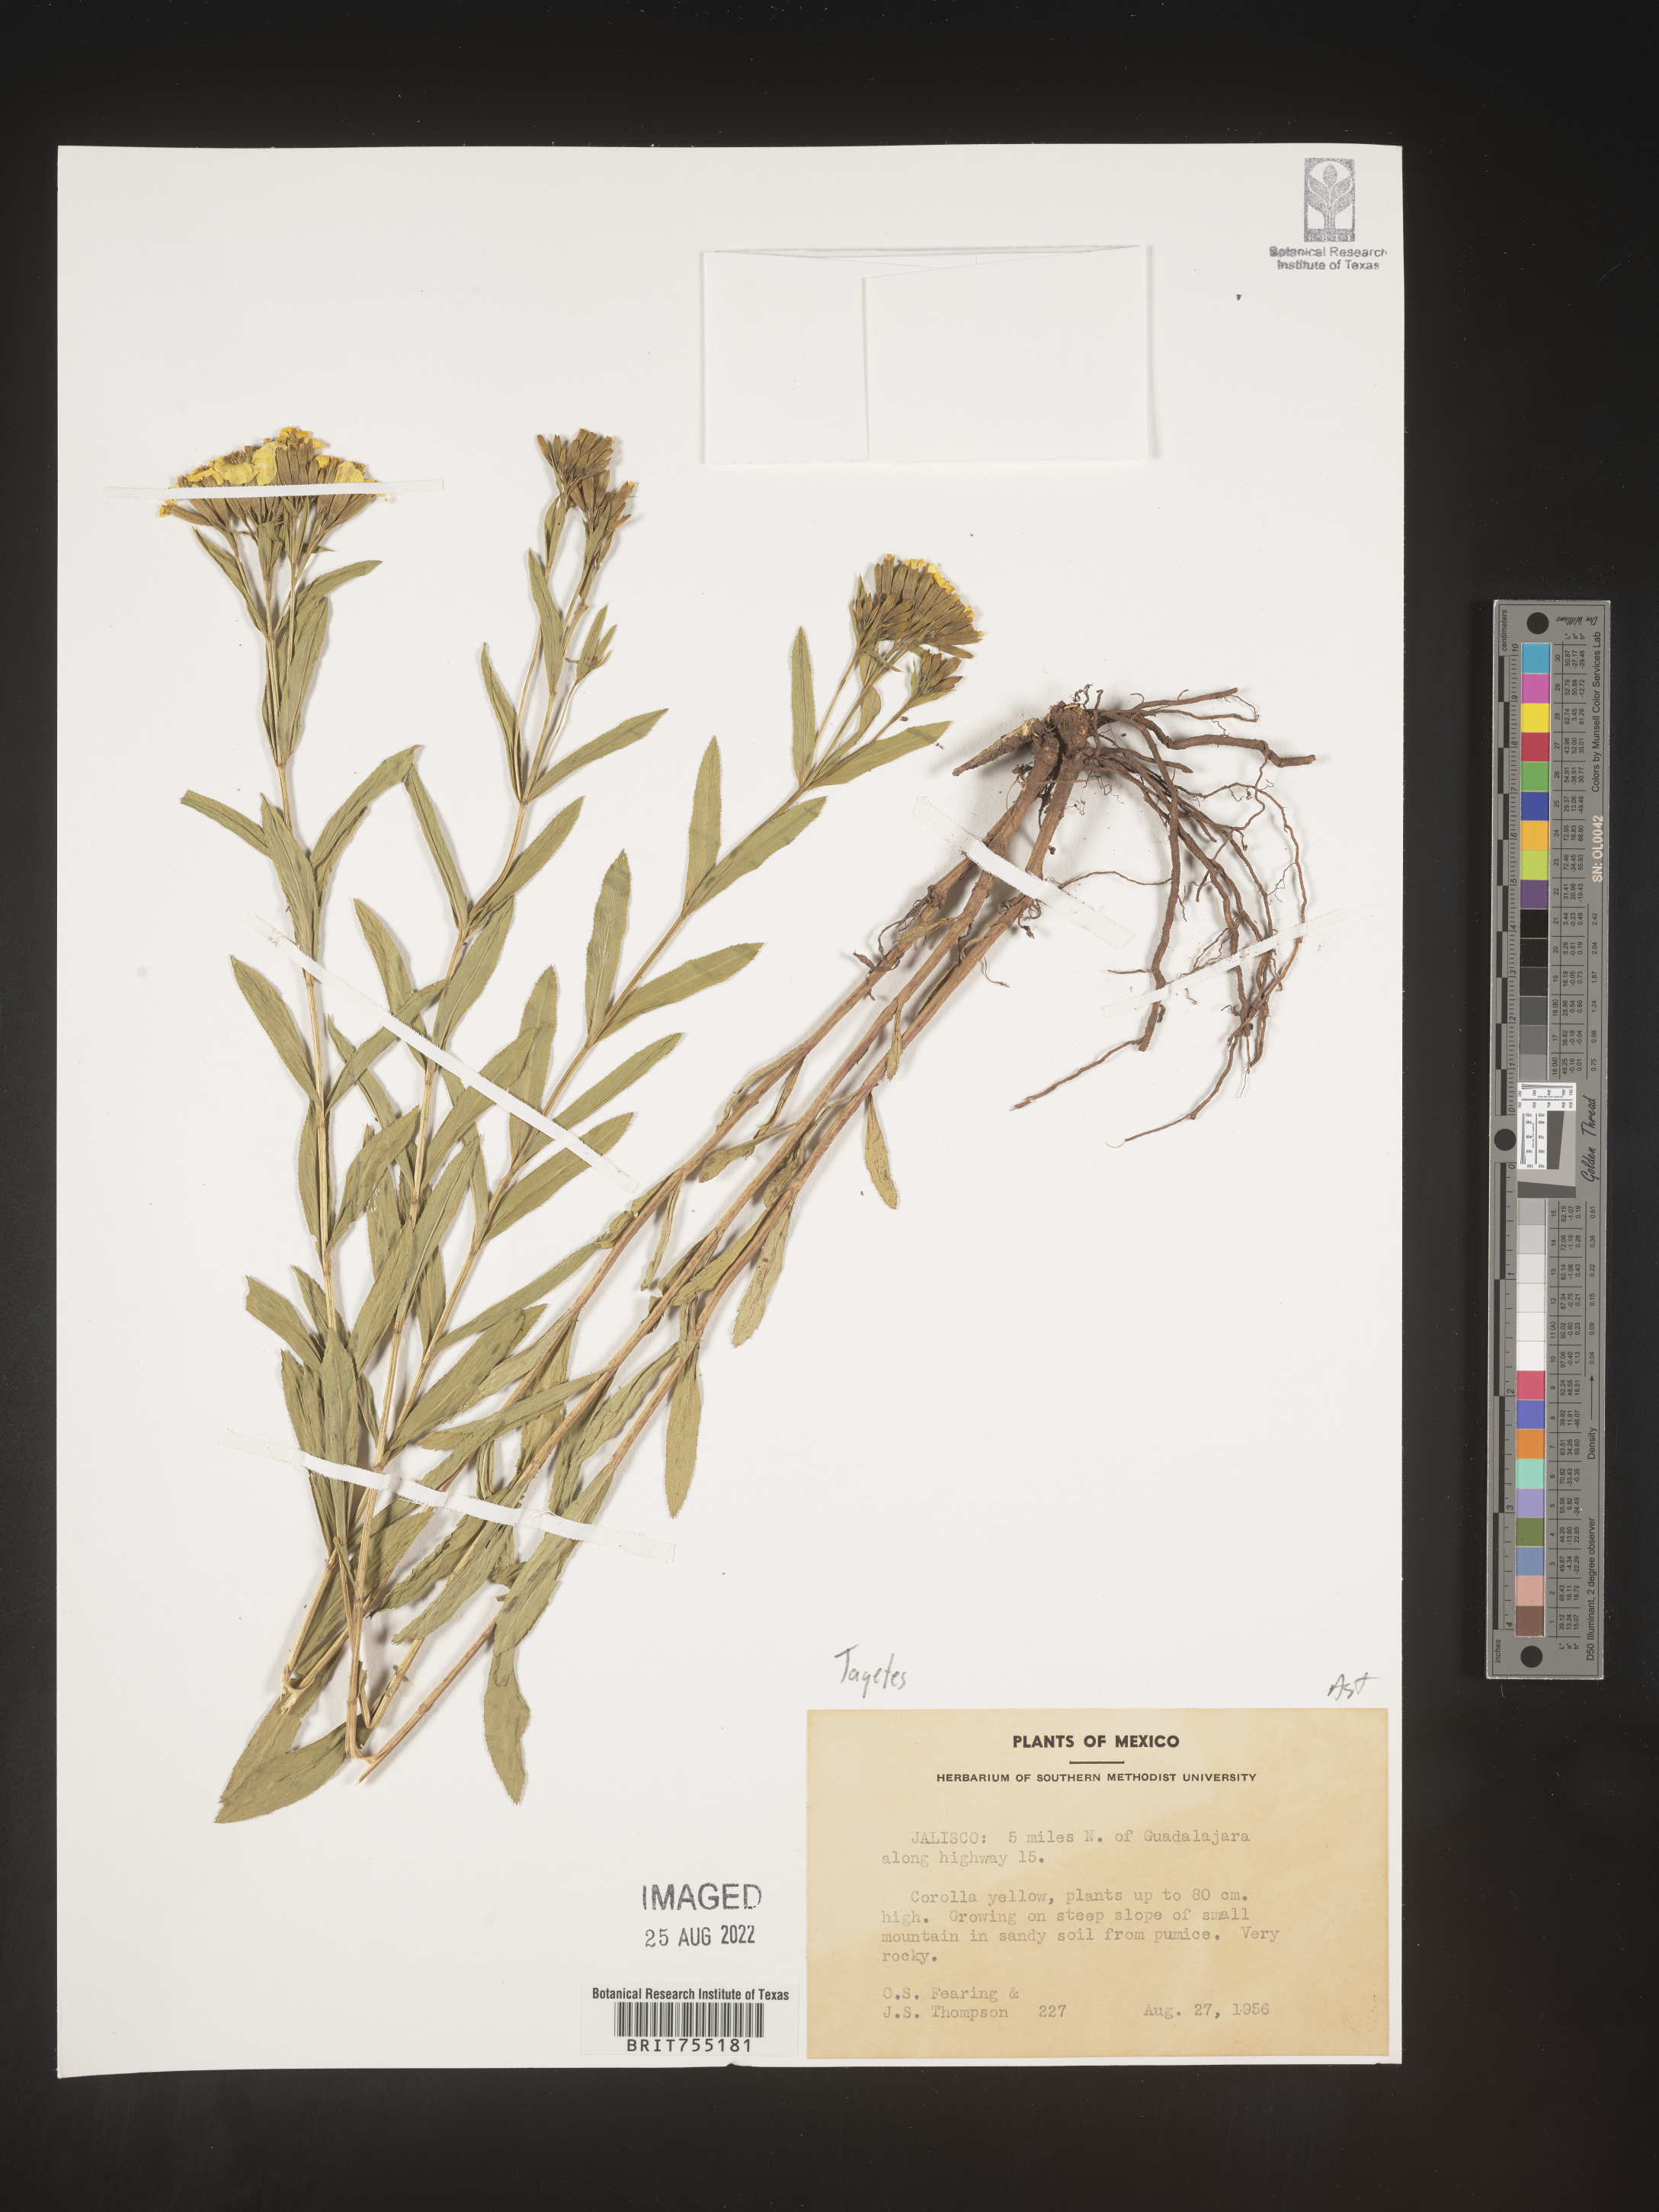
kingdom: Plantae
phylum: Tracheophyta
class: Magnoliopsida
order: Asterales
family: Asteraceae
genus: Tagetes
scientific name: Tagetes
